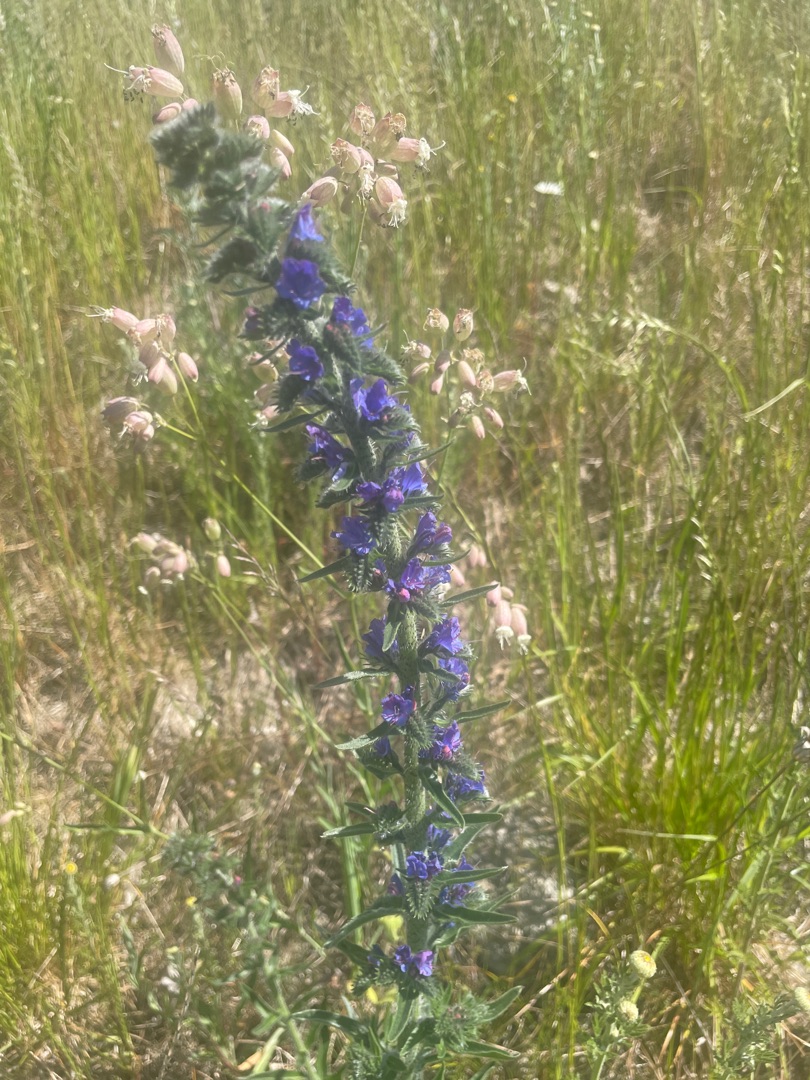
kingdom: Plantae
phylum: Tracheophyta
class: Magnoliopsida
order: Boraginales
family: Boraginaceae
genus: Echium
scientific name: Echium vulgare
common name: Slangehoved
